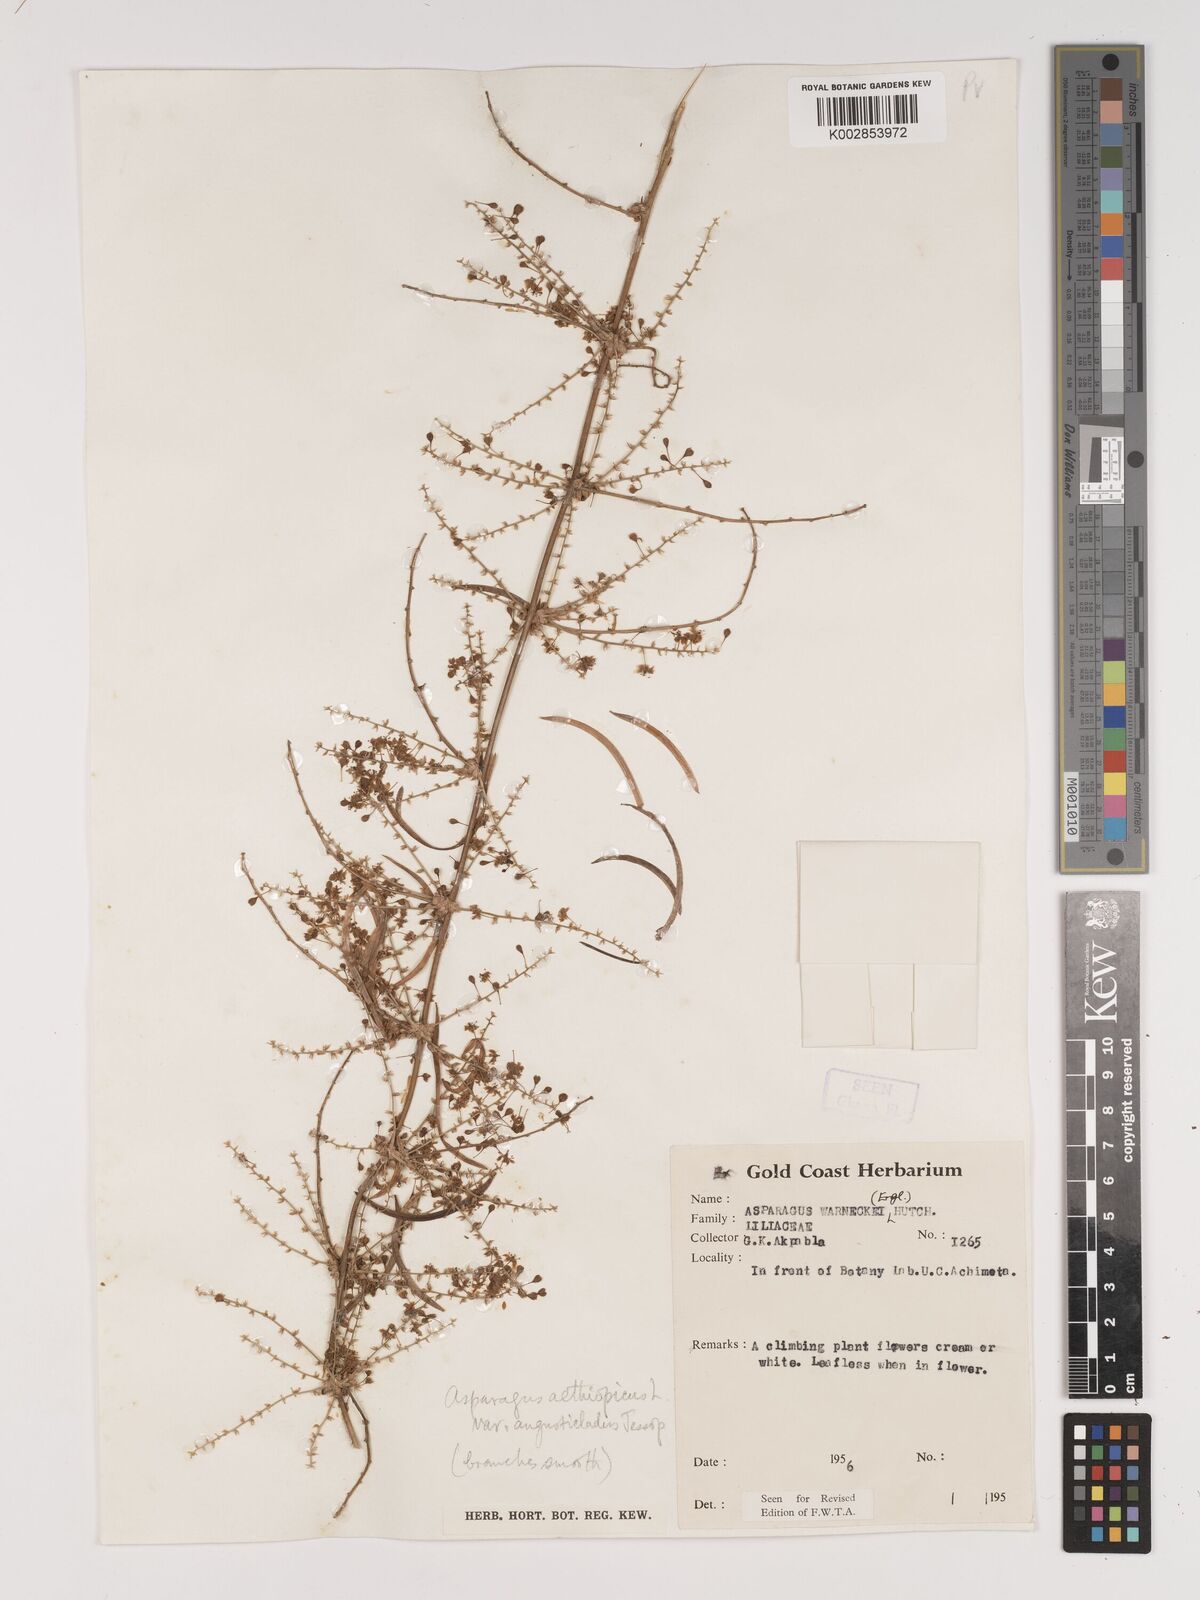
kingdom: Plantae
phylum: Tracheophyta
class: Liliopsida
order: Asparagales
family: Asparagaceae
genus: Asparagus
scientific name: Asparagus aethiopicus
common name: Sprenger's asparagus fern
